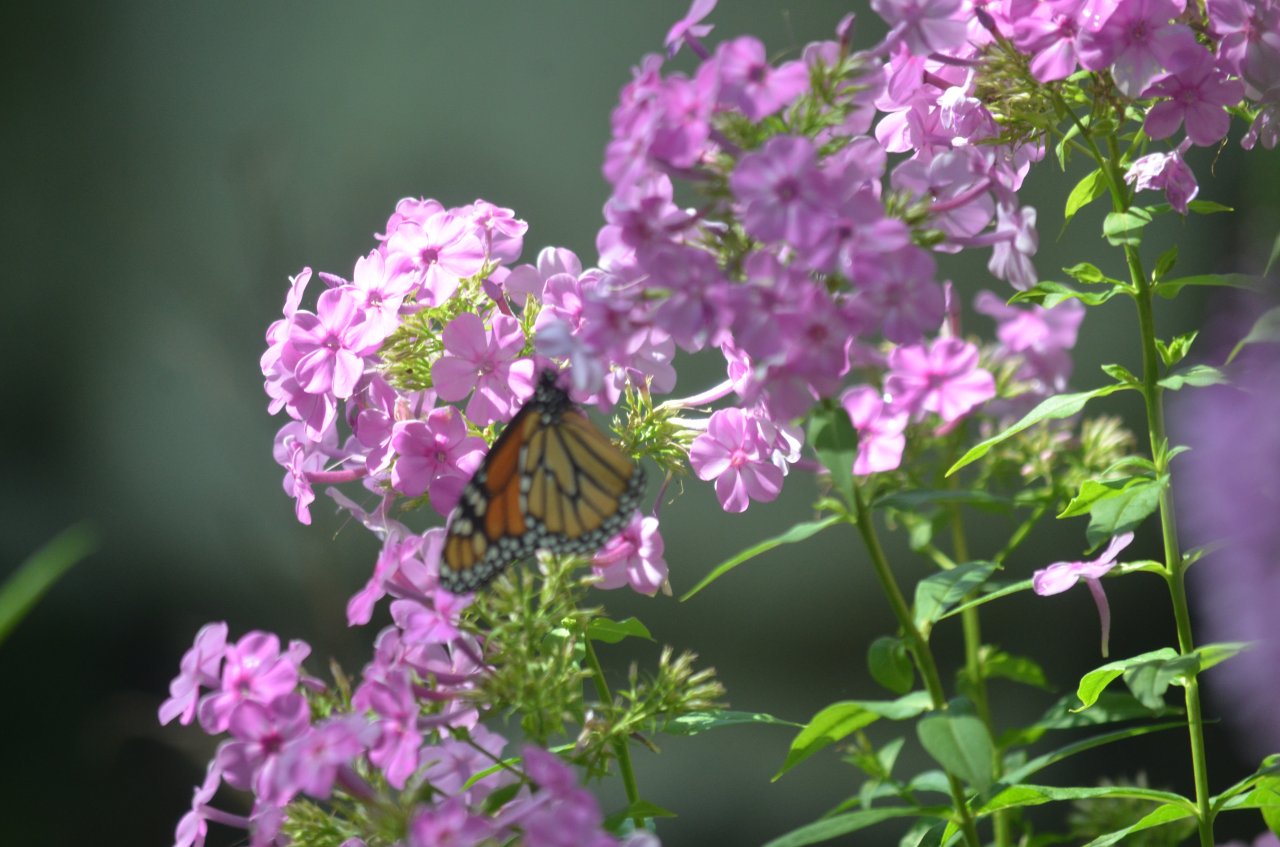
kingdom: Animalia
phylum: Arthropoda
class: Insecta
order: Lepidoptera
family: Nymphalidae
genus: Danaus
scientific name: Danaus plexippus
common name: Monarch
